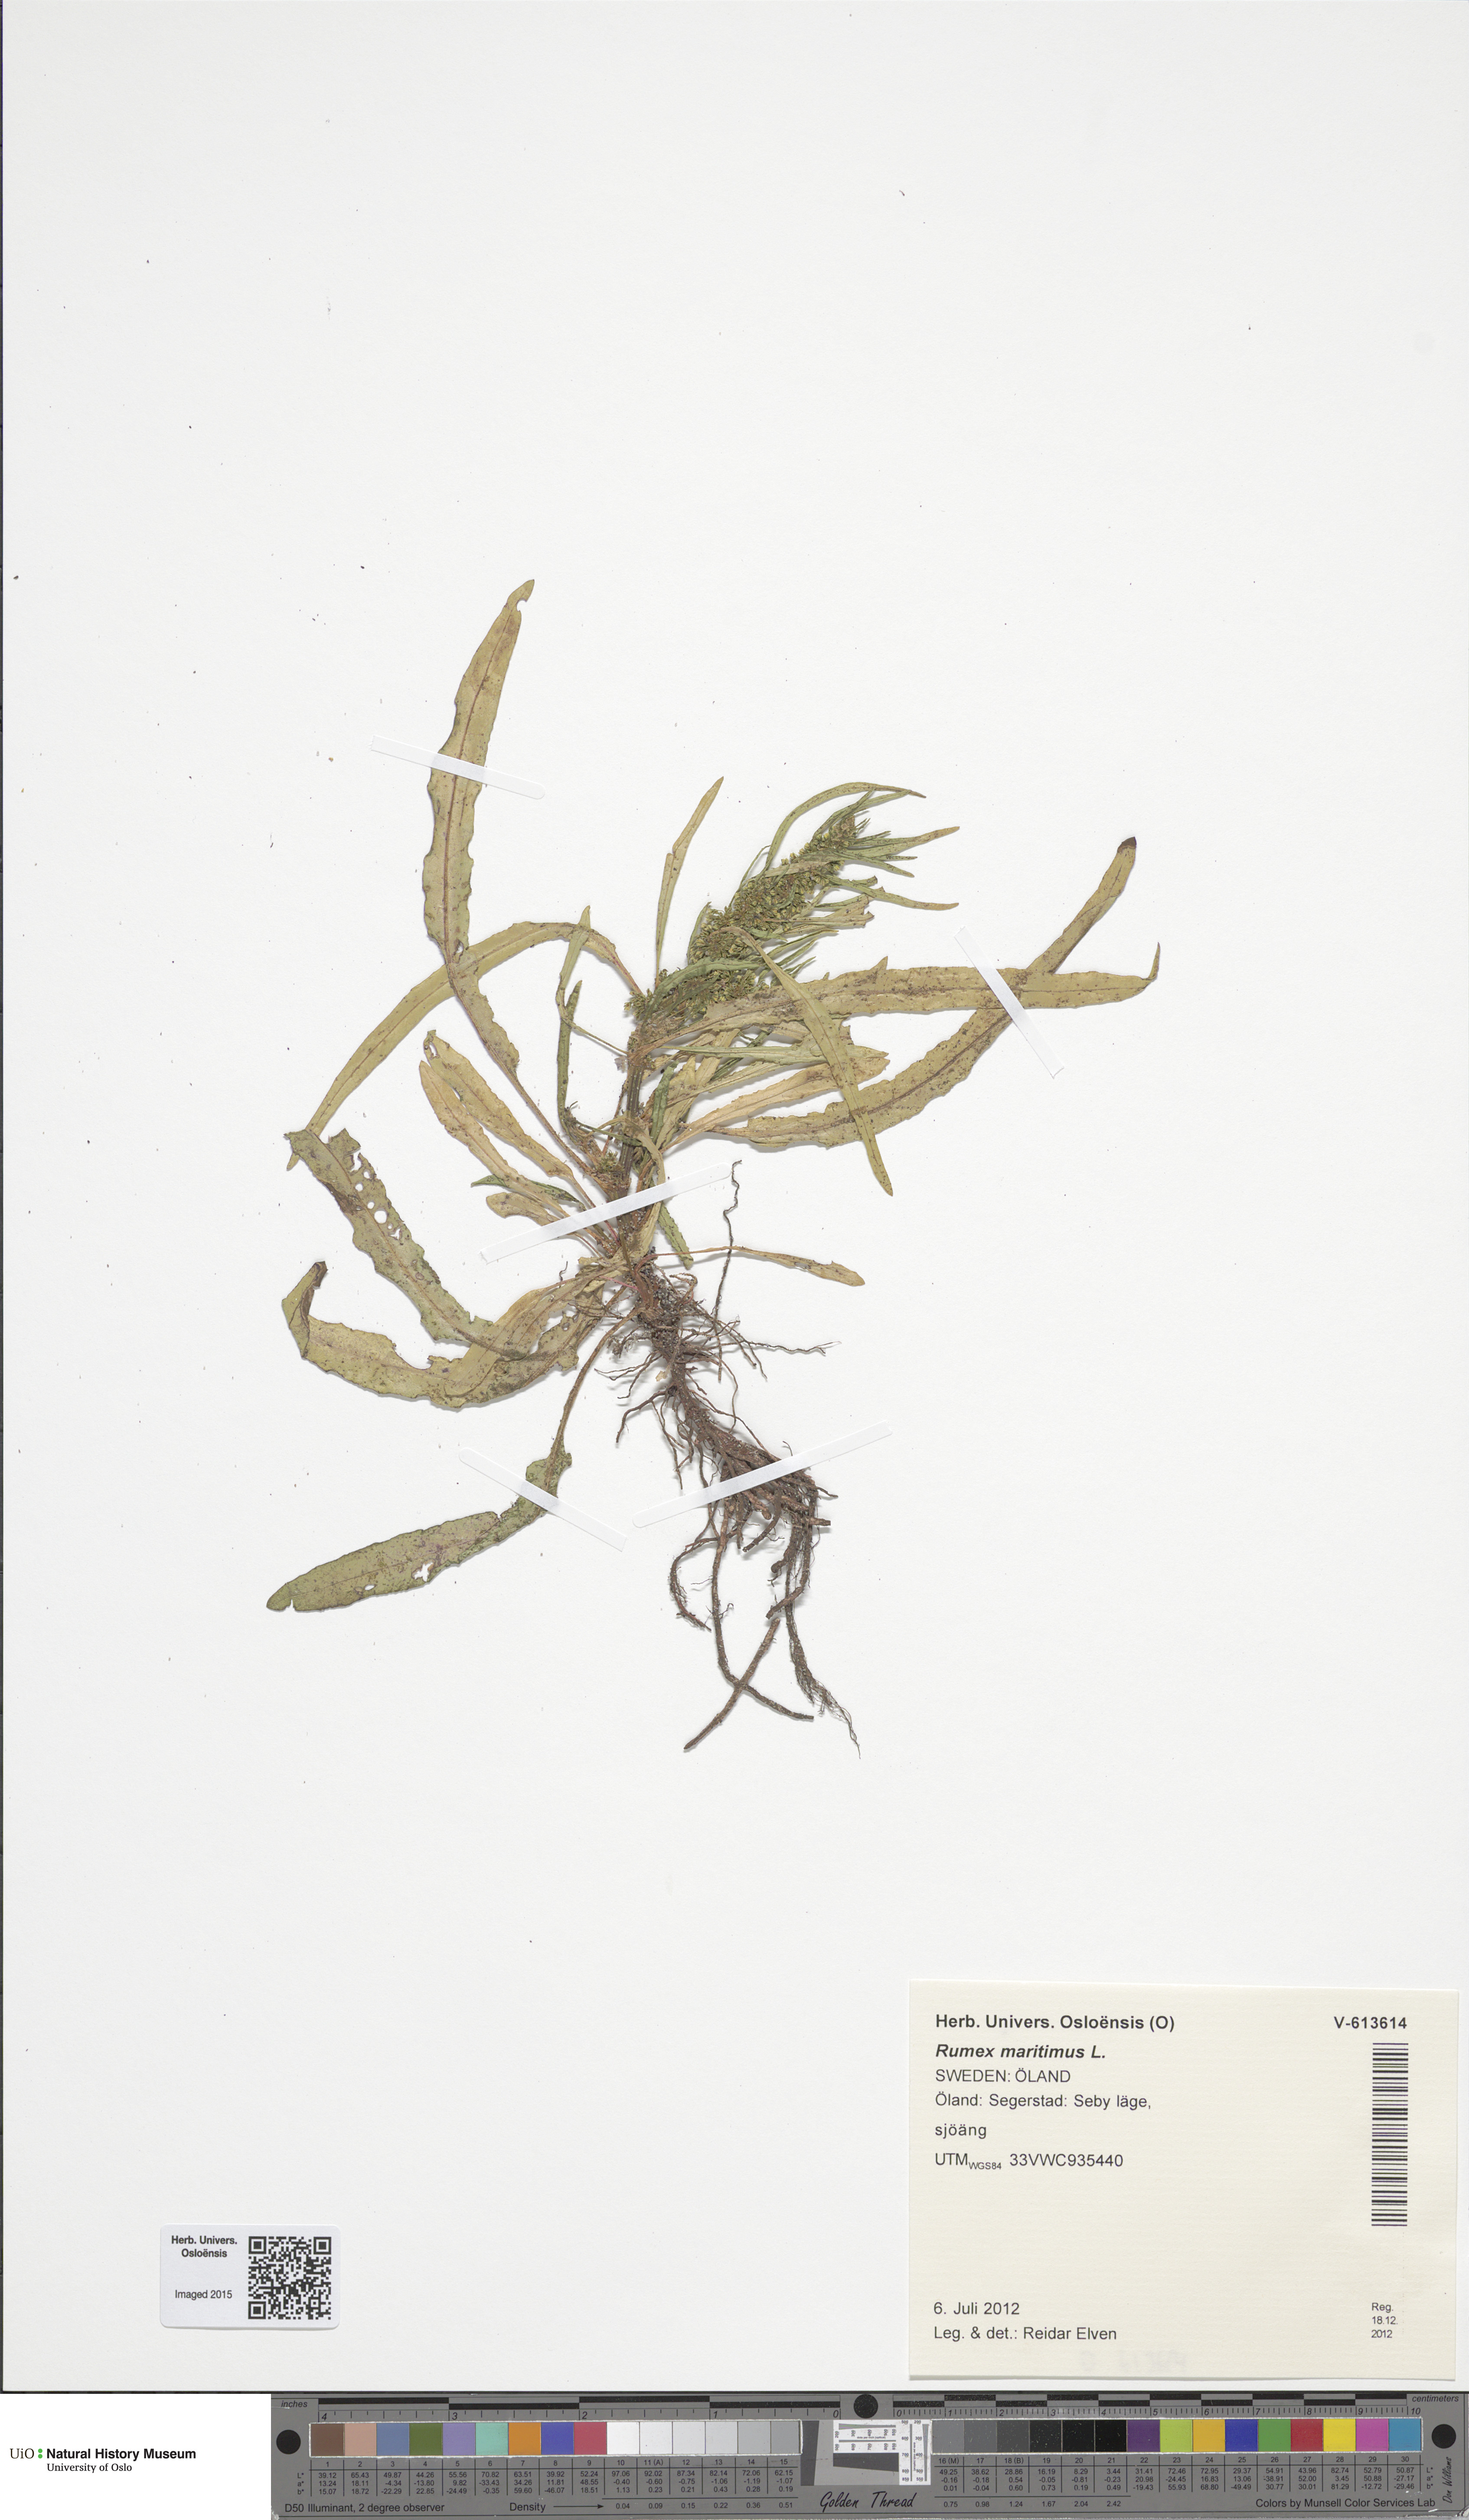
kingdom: Plantae
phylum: Tracheophyta
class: Magnoliopsida
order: Caryophyllales
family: Polygonaceae
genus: Rumex
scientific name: Rumex maritimus
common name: Golden dock
